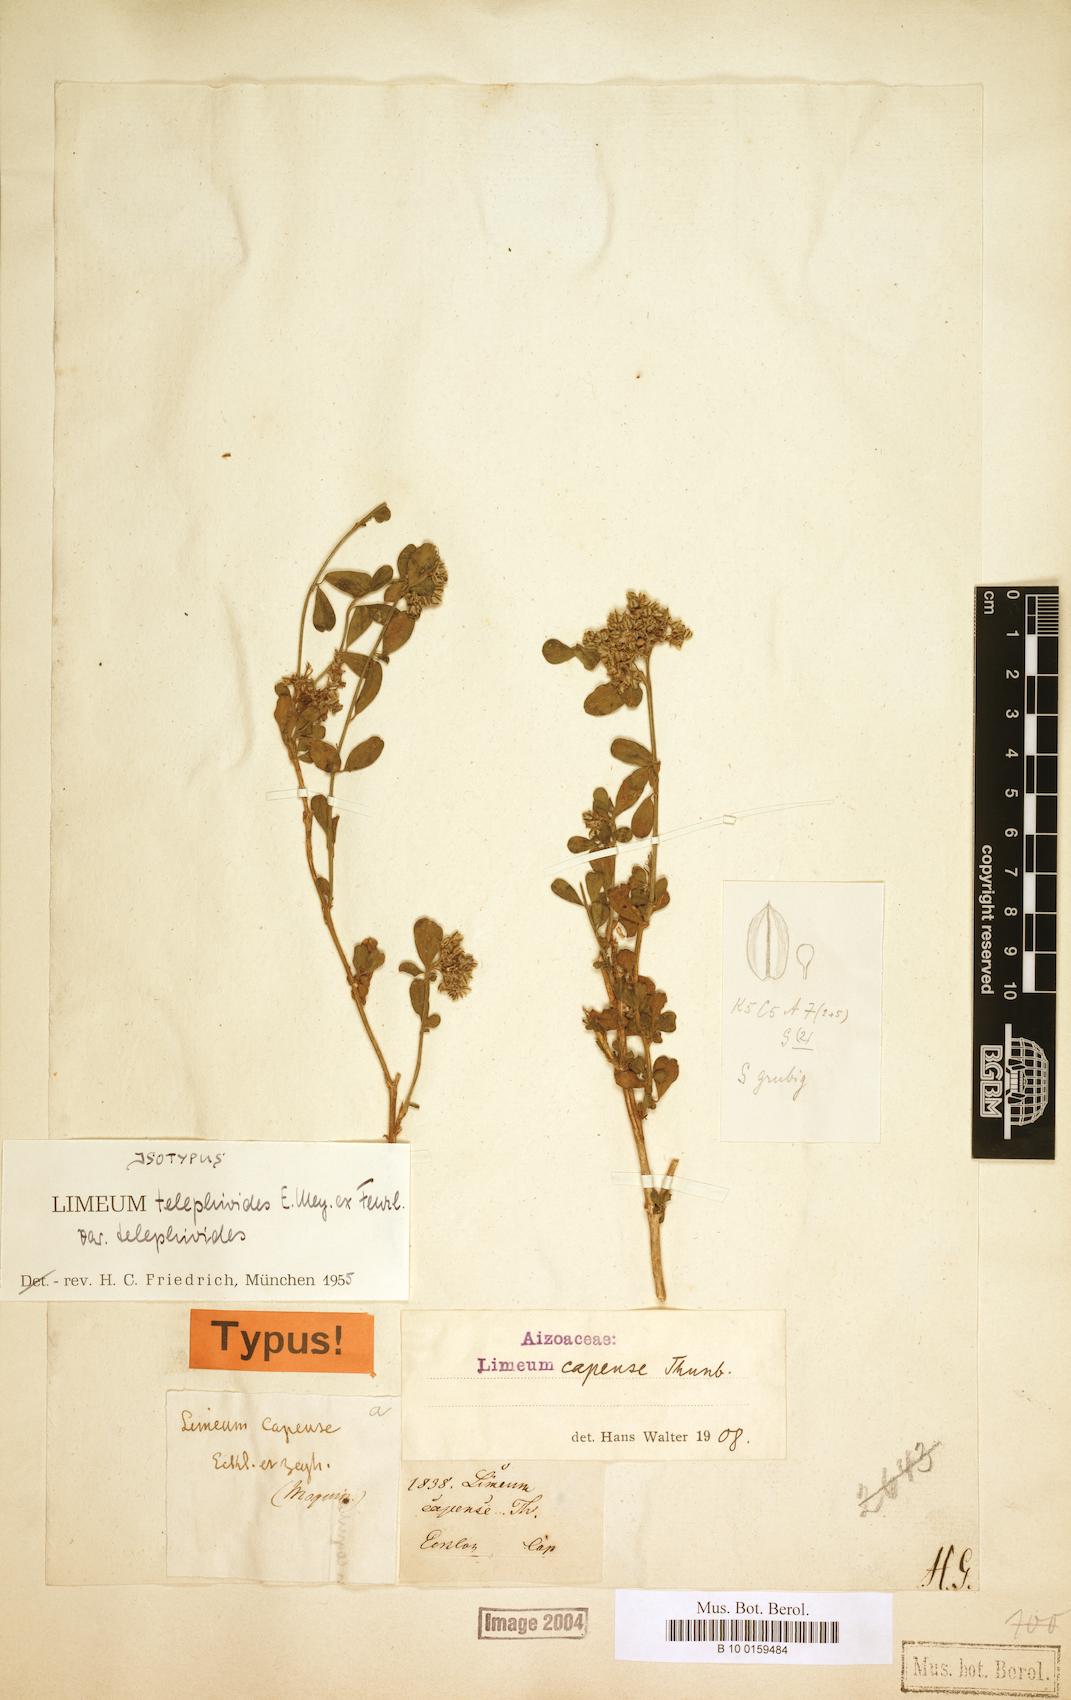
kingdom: Plantae
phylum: Tracheophyta
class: Magnoliopsida
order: Caryophyllales
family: Limeaceae
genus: Limeum
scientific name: Limeum telephioides
